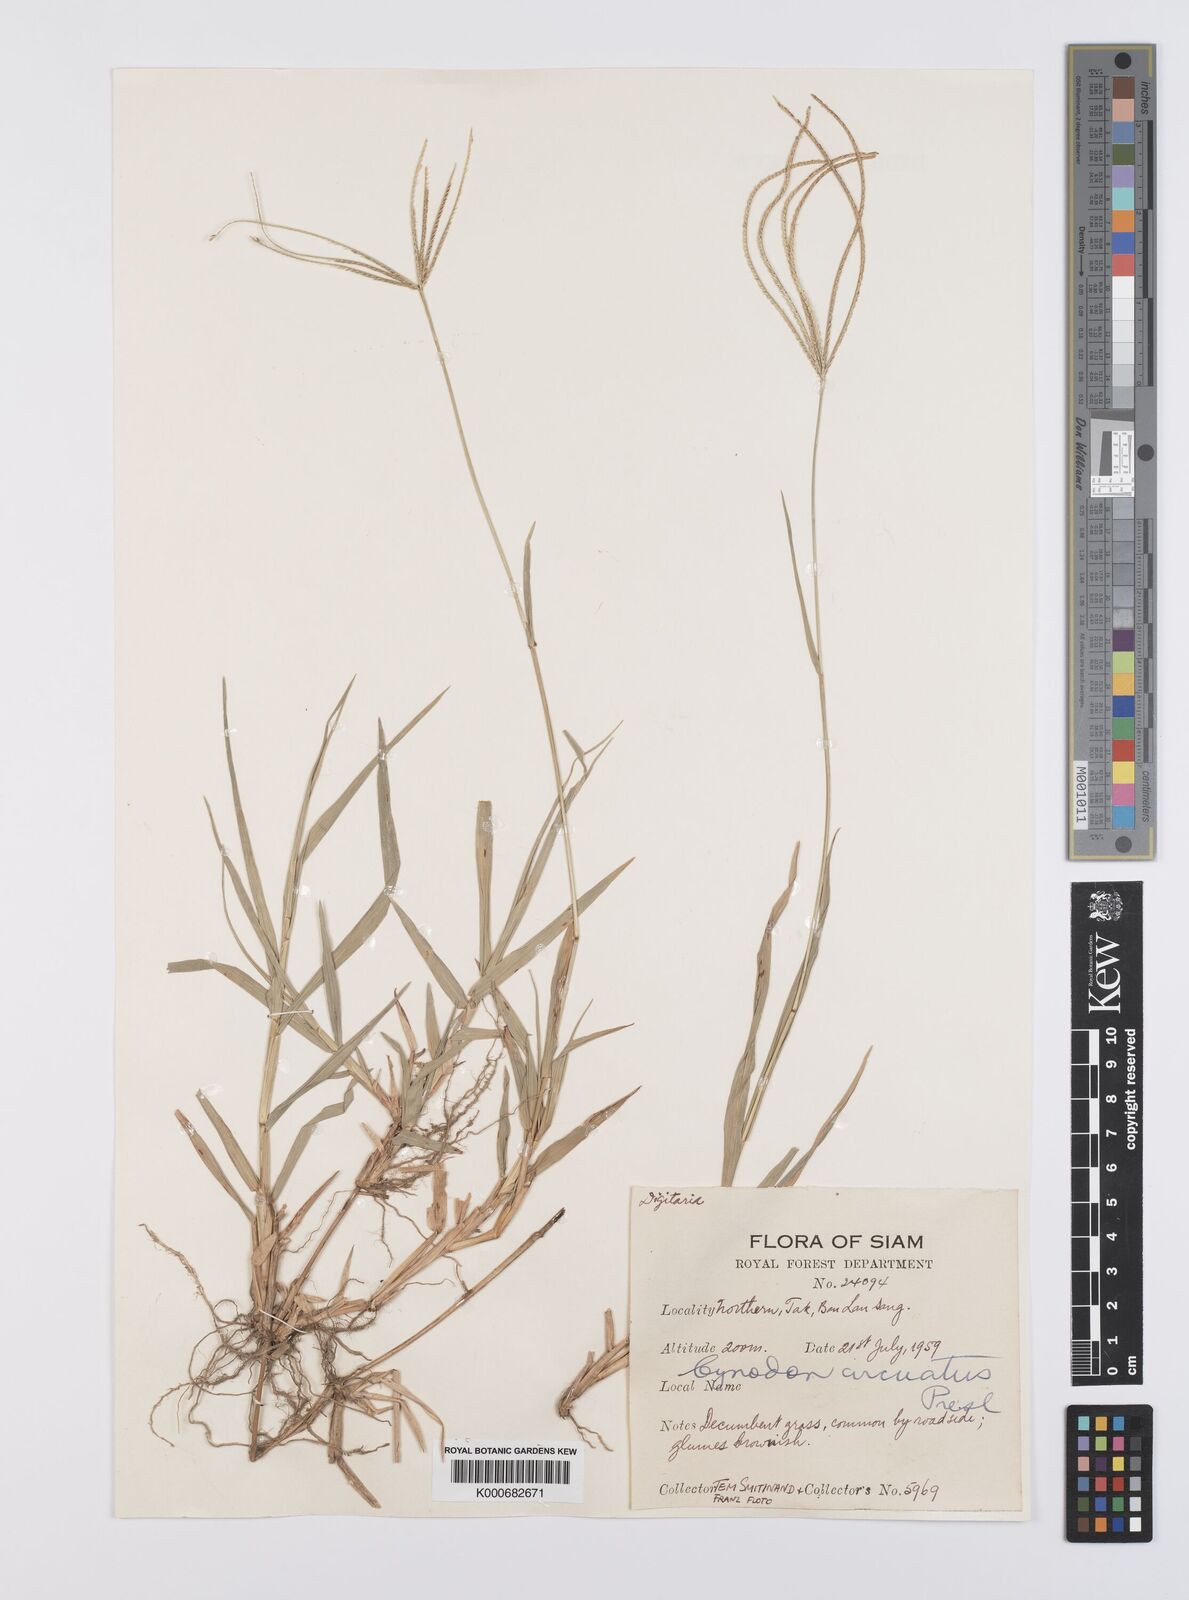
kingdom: Plantae
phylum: Tracheophyta
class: Liliopsida
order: Poales
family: Poaceae
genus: Cynodon
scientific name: Cynodon radiatus
